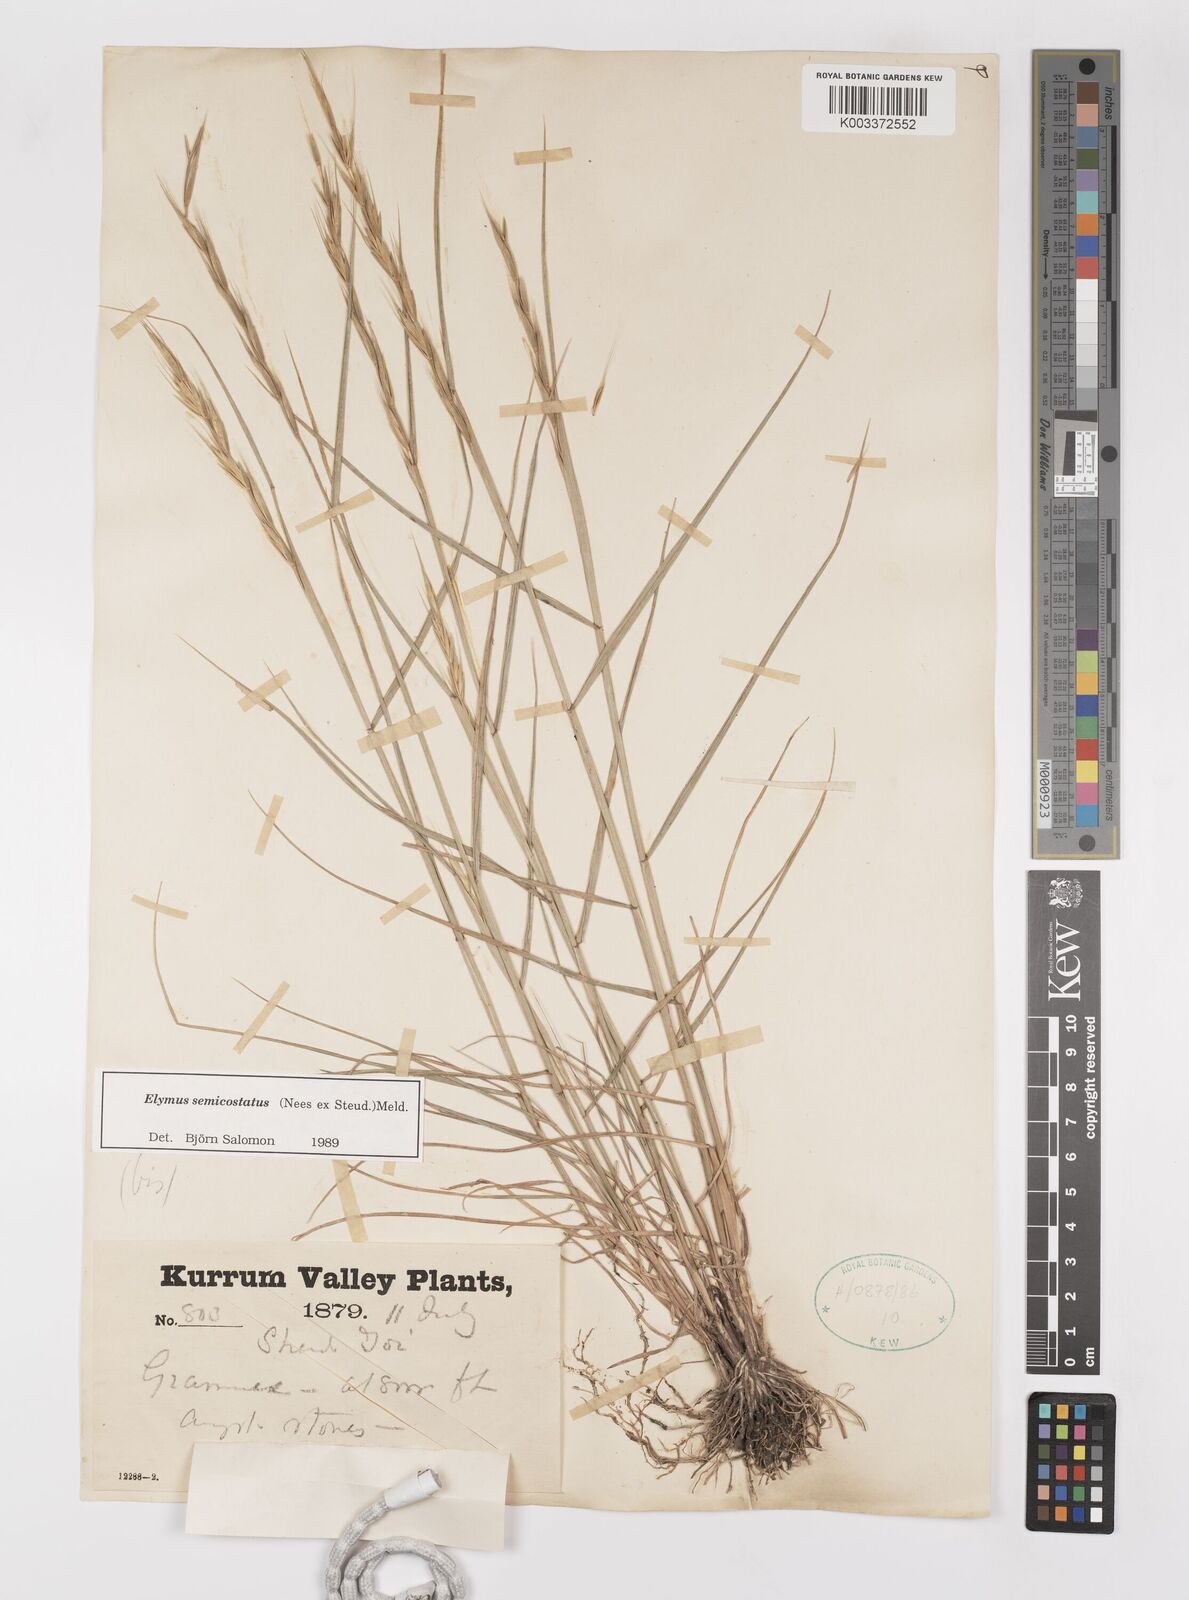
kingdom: Plantae
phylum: Tracheophyta
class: Liliopsida
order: Poales
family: Poaceae
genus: Elymus
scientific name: Elymus semicostatus
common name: Drooping wildrye
